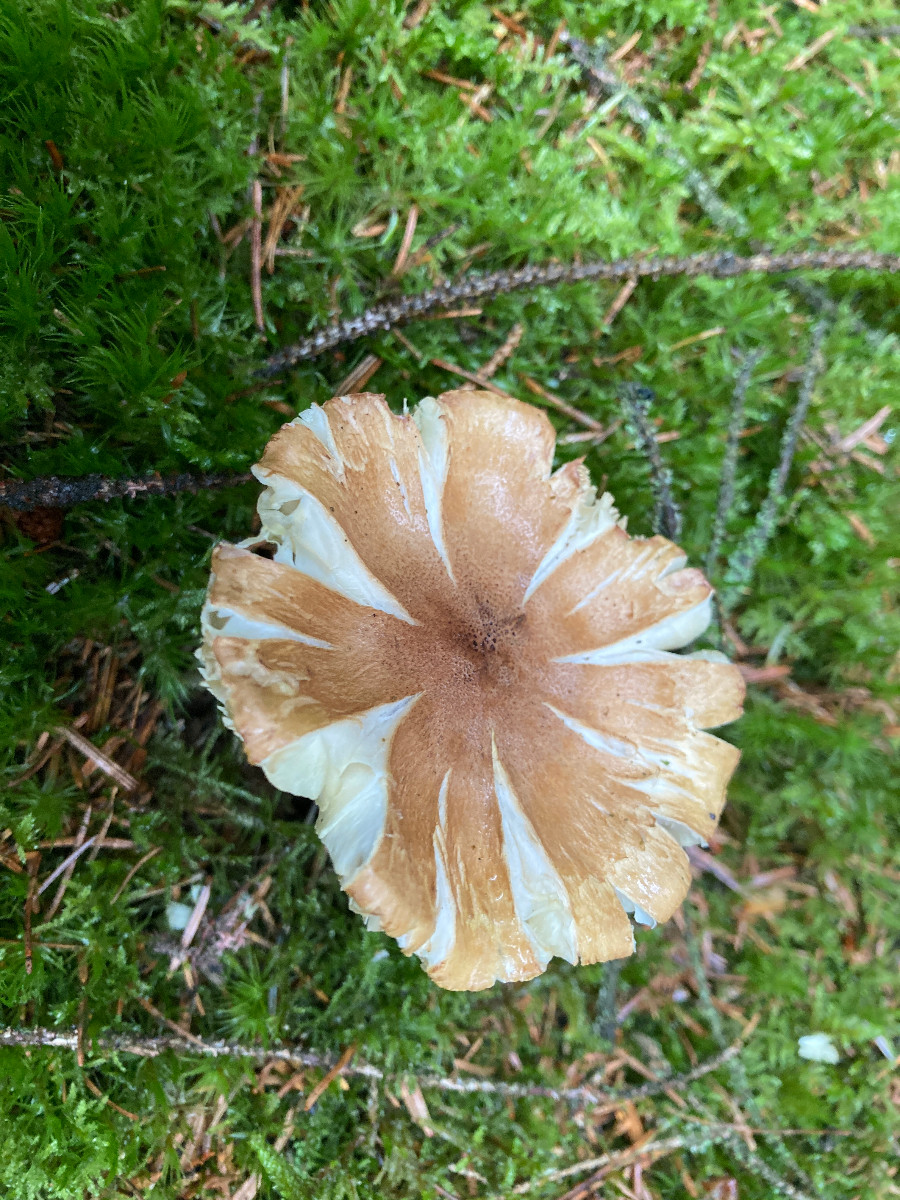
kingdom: Fungi
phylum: Basidiomycota
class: Agaricomycetes
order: Agaricales
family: Tricholomataceae
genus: Tricholoma
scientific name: Tricholoma aestuans
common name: kegle-ridderhat
